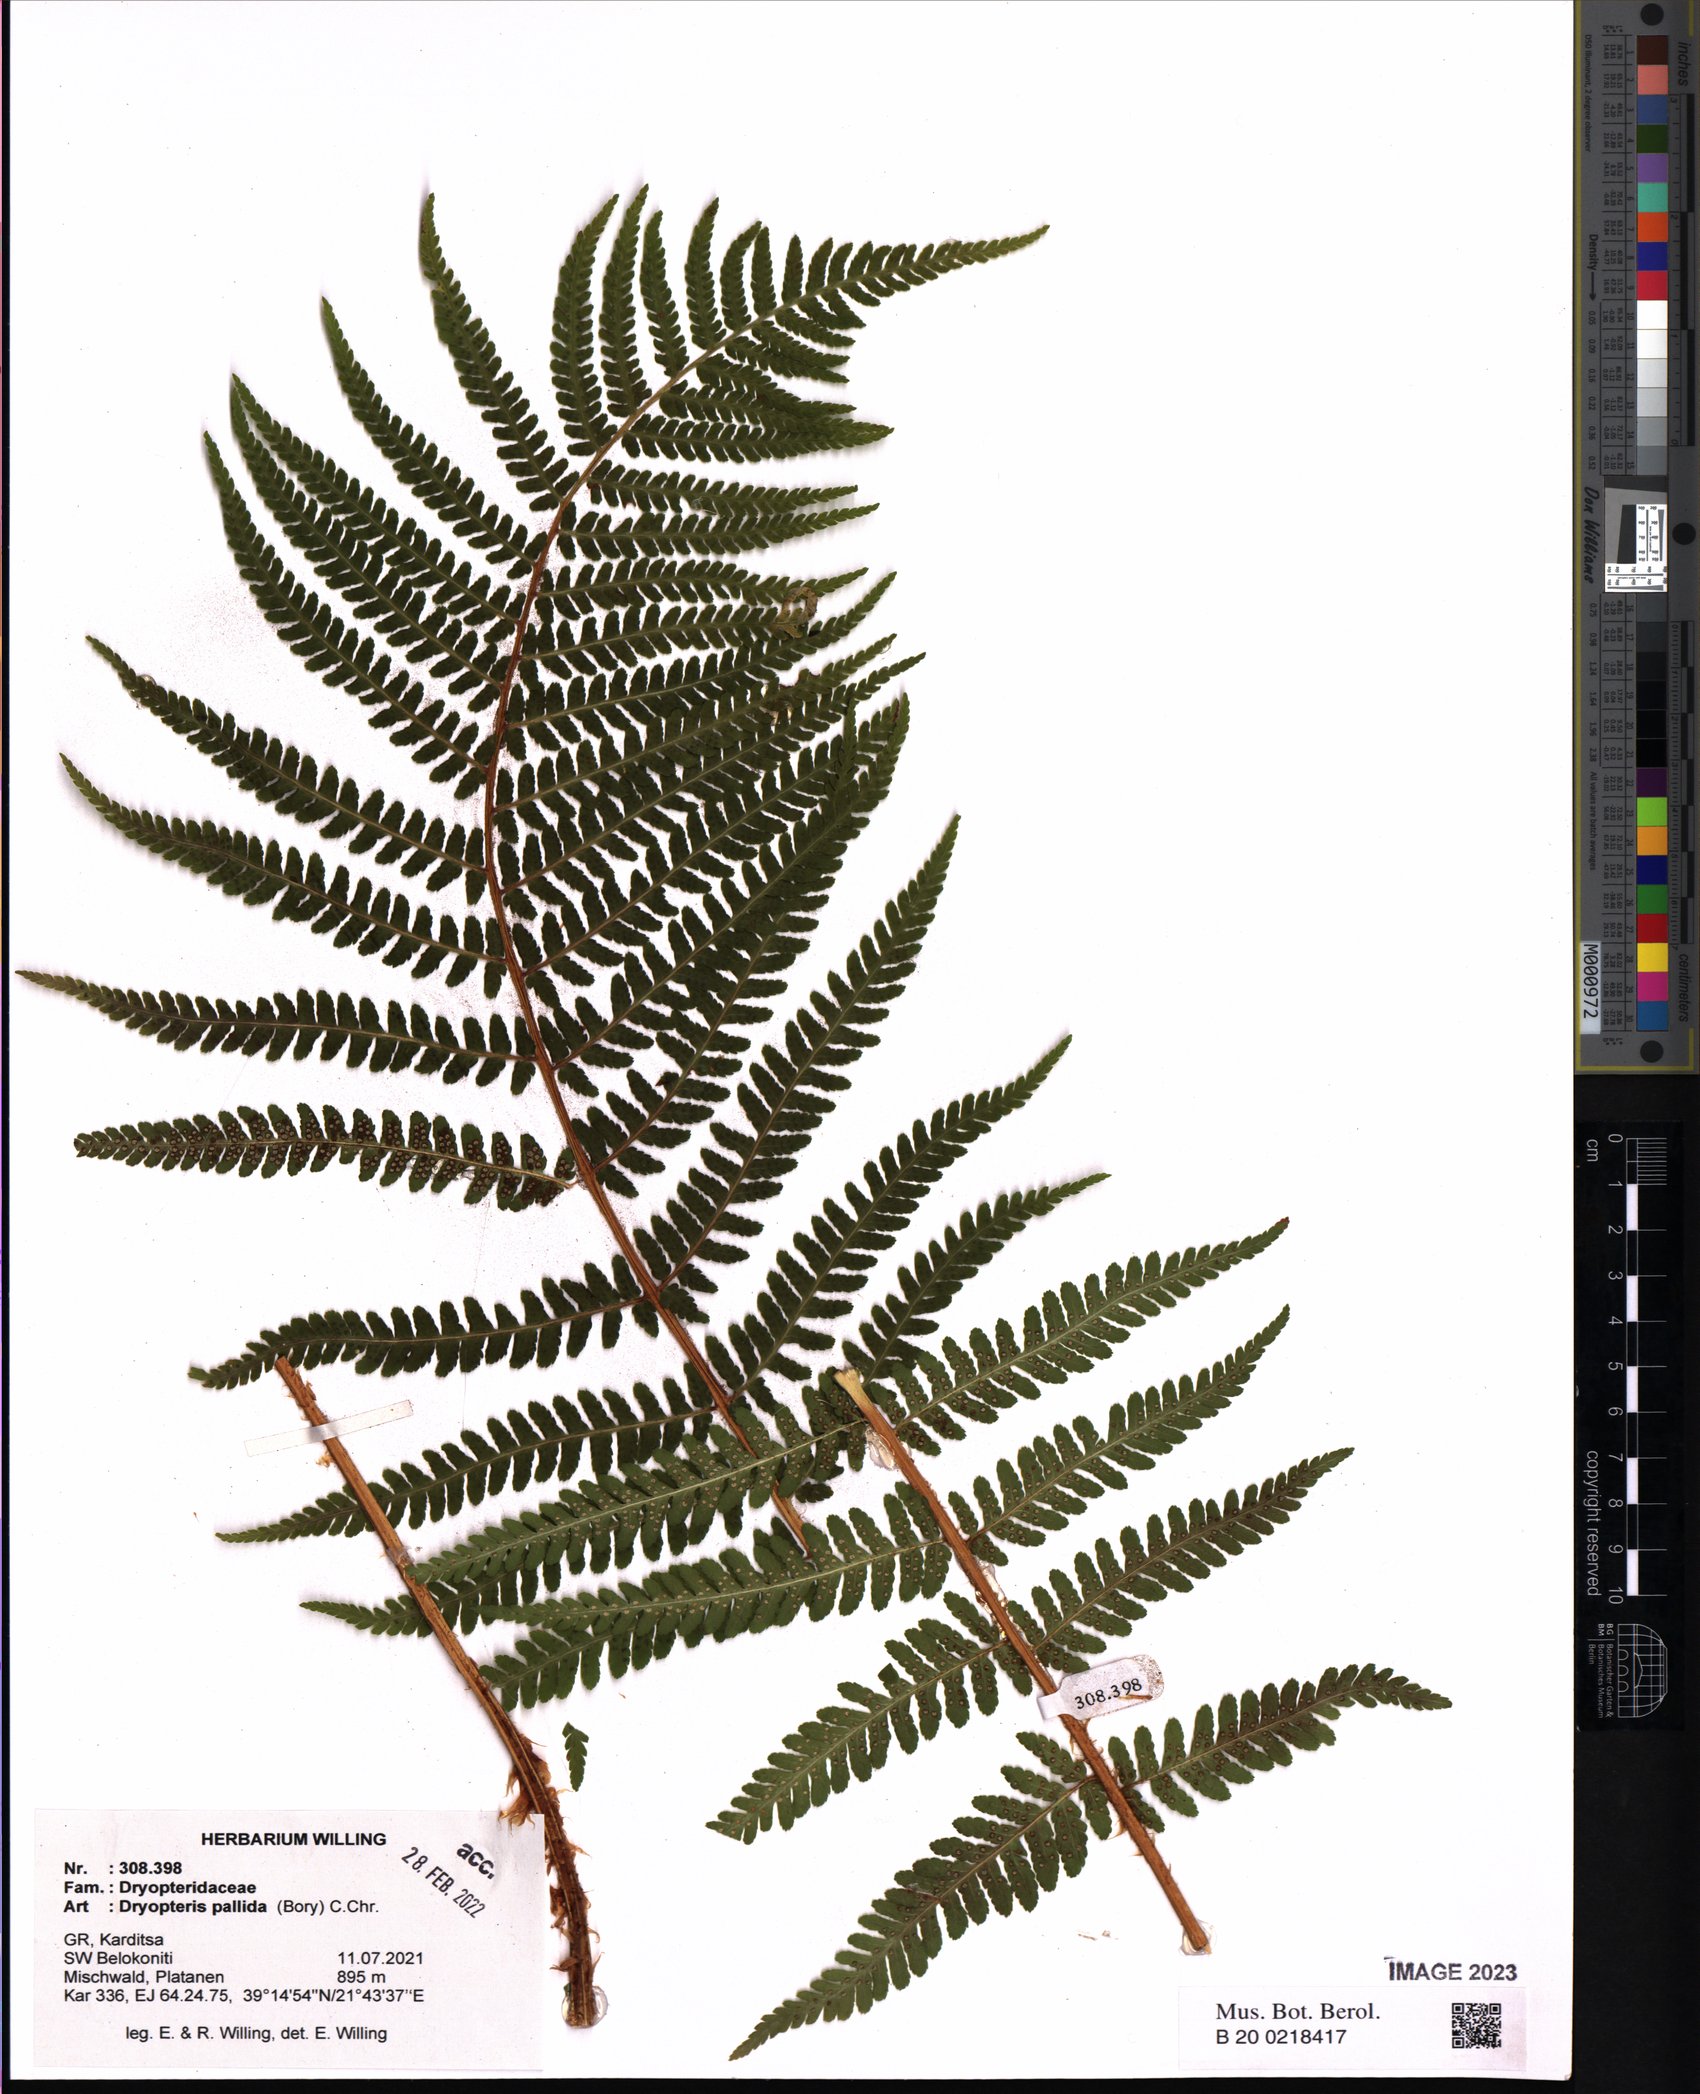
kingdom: Plantae
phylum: Tracheophyta
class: Polypodiopsida
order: Polypodiales
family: Dryopteridaceae
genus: Dryopteris
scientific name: Dryopteris pallida
